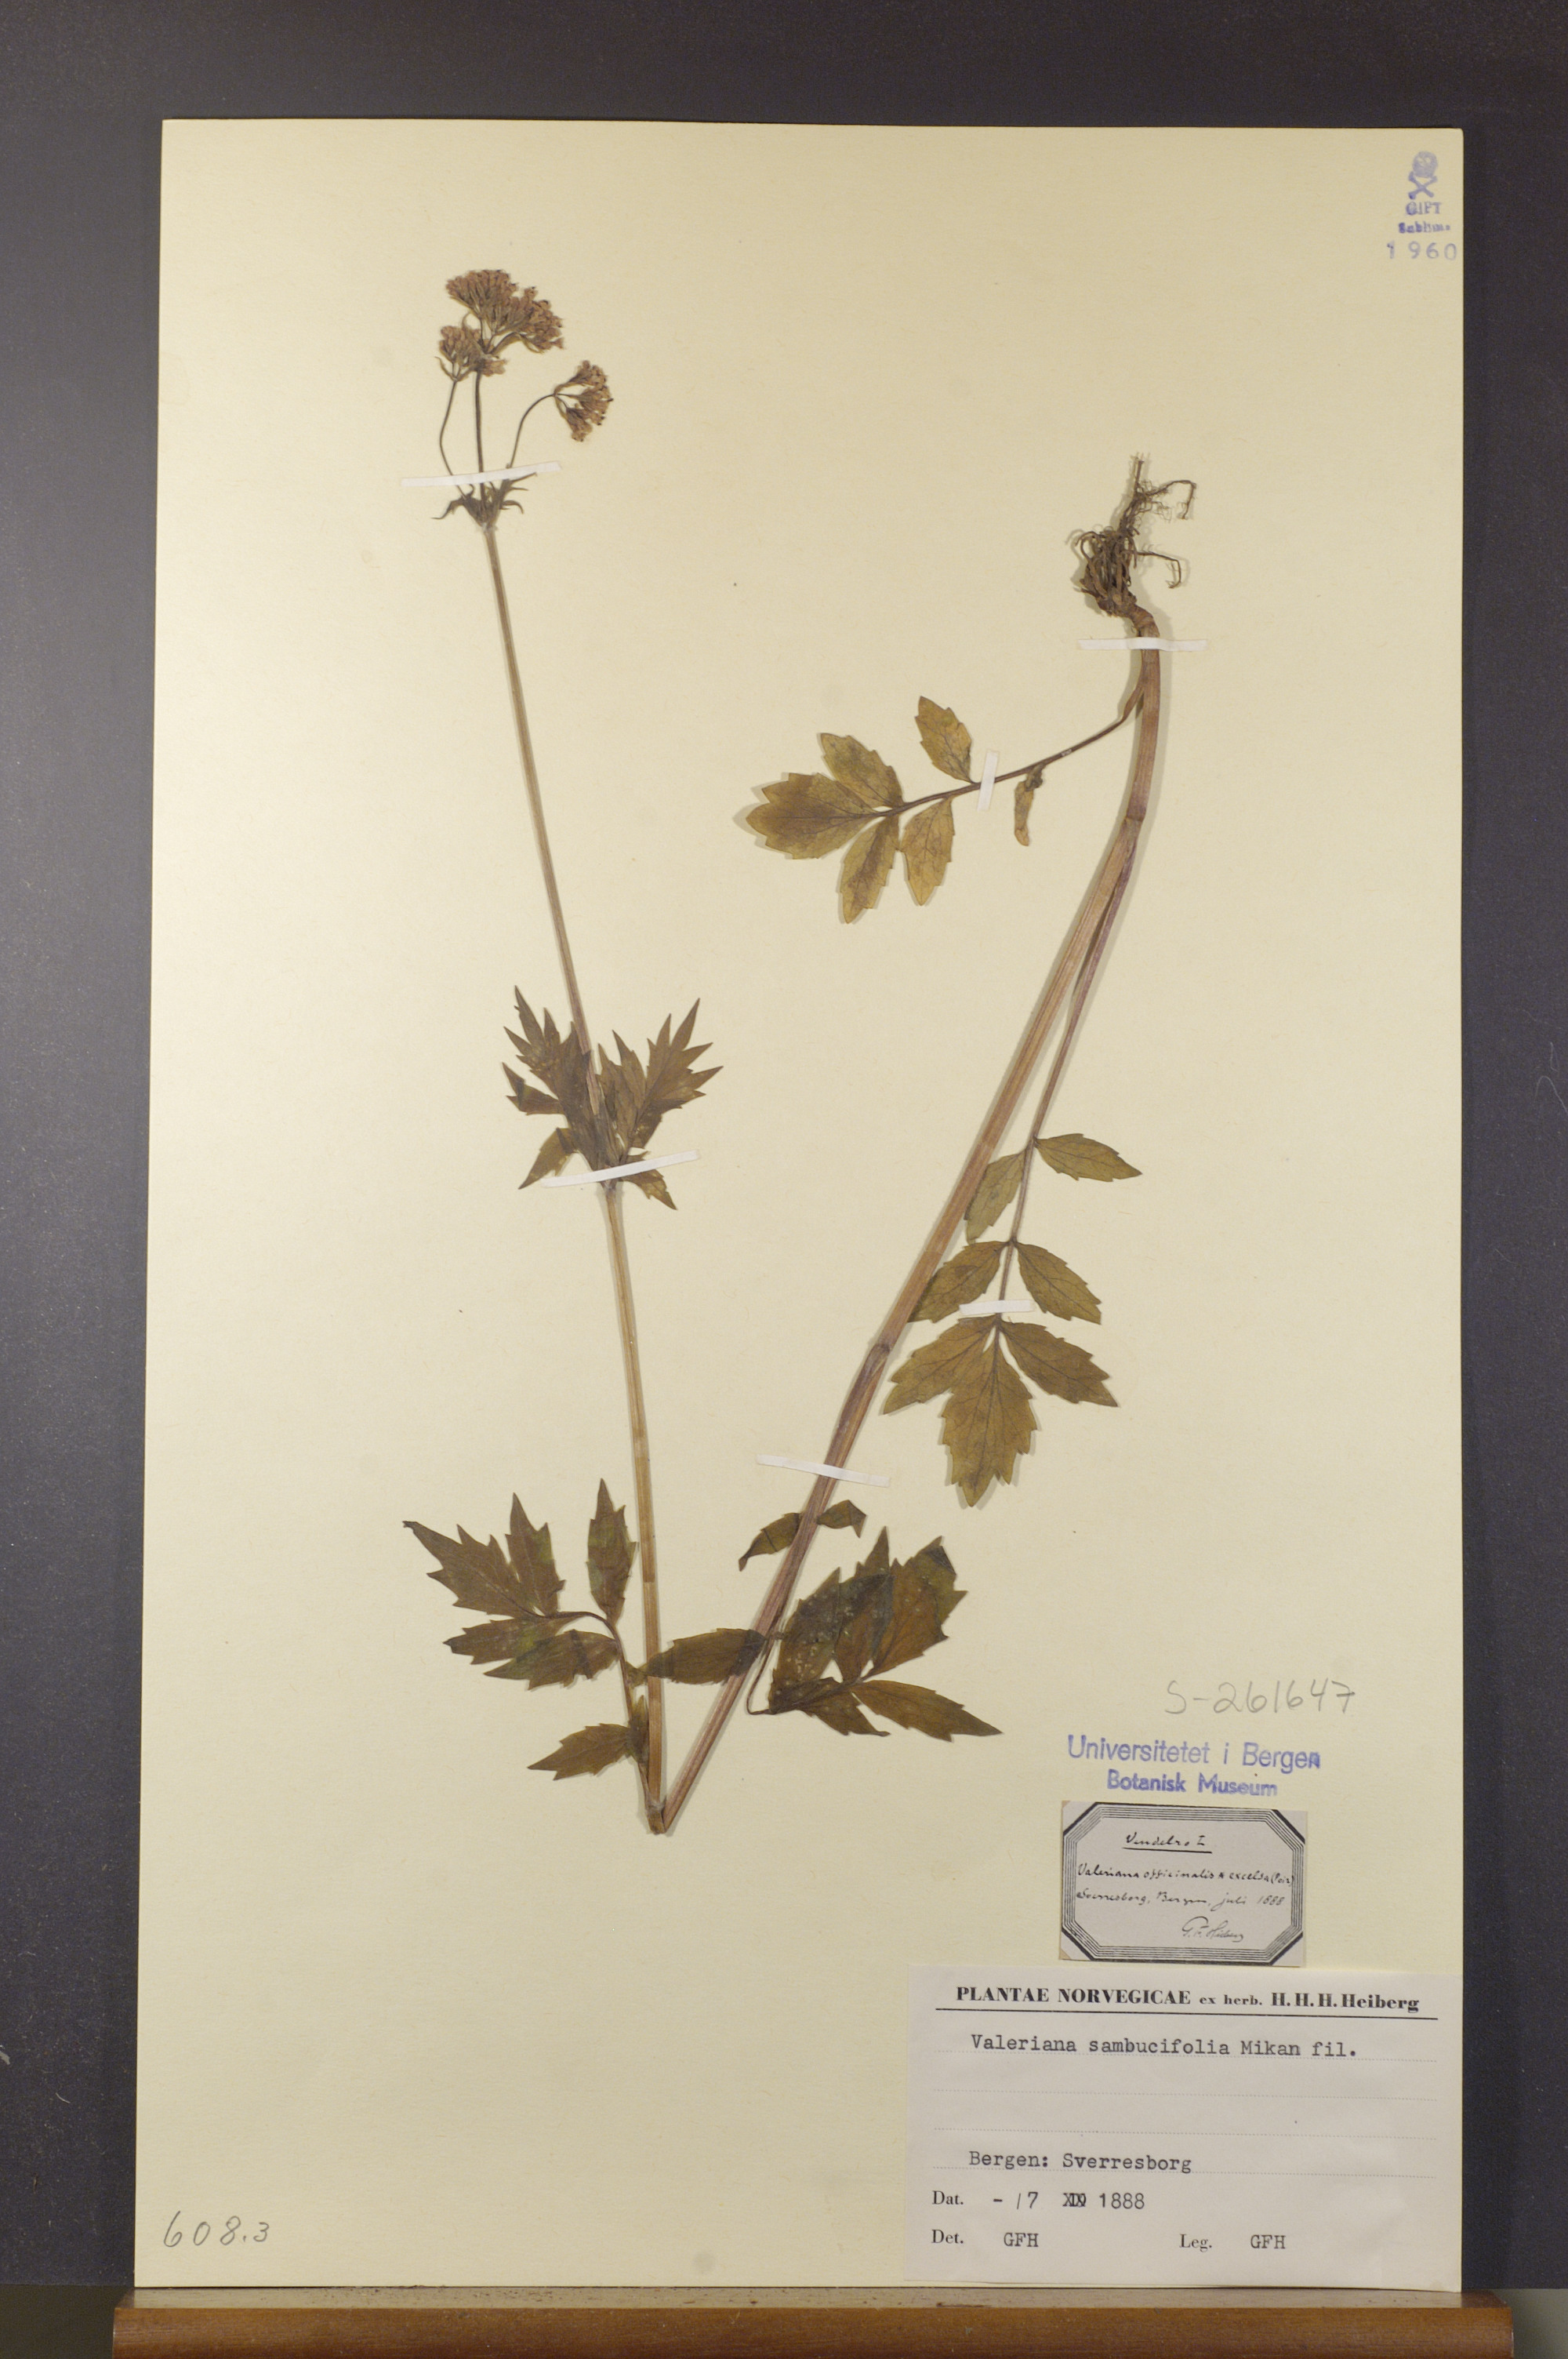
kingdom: Plantae
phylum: Tracheophyta
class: Magnoliopsida
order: Dipsacales
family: Caprifoliaceae
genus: Valeriana
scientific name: Valeriana excelsa
